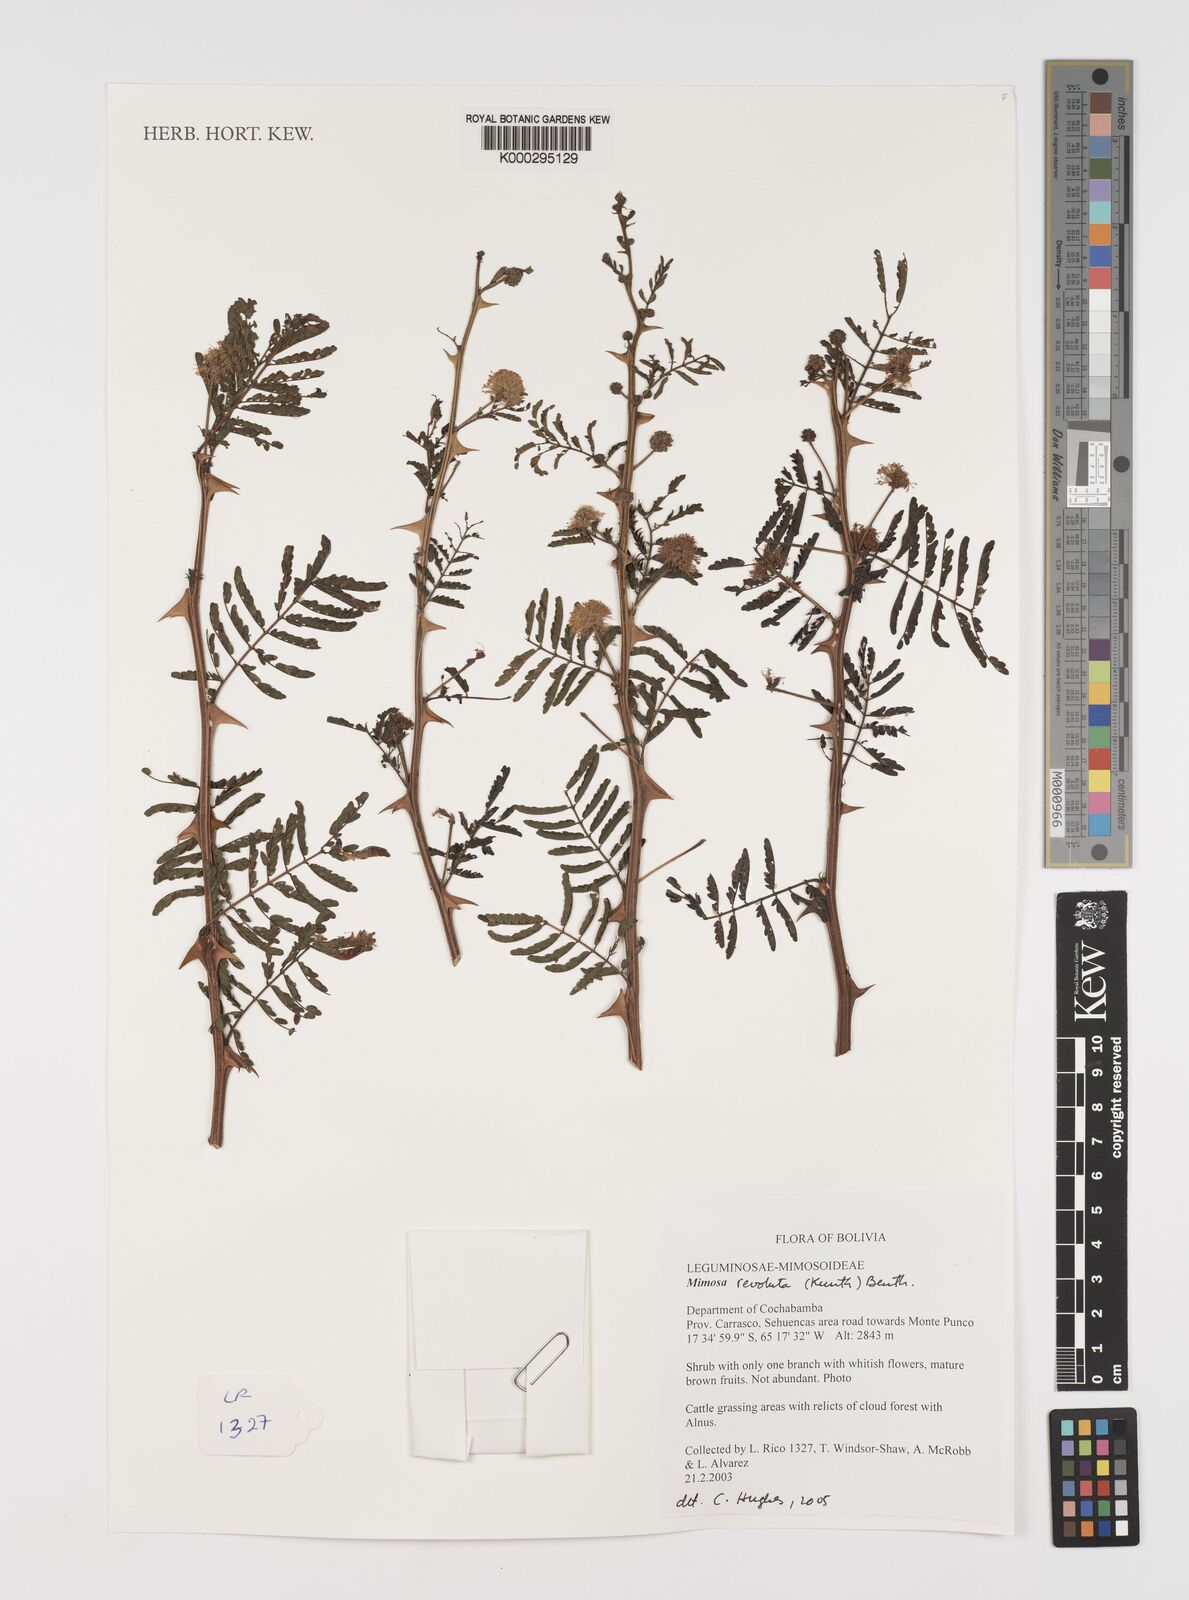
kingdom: Plantae
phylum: Tracheophyta
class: Magnoliopsida
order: Fabales
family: Fabaceae
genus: Mimosa
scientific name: Mimosa
